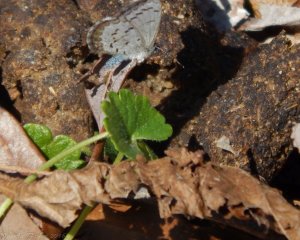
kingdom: Animalia
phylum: Arthropoda
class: Insecta
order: Lepidoptera
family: Lycaenidae
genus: Celastrina
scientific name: Celastrina ladon
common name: Spring Azure
